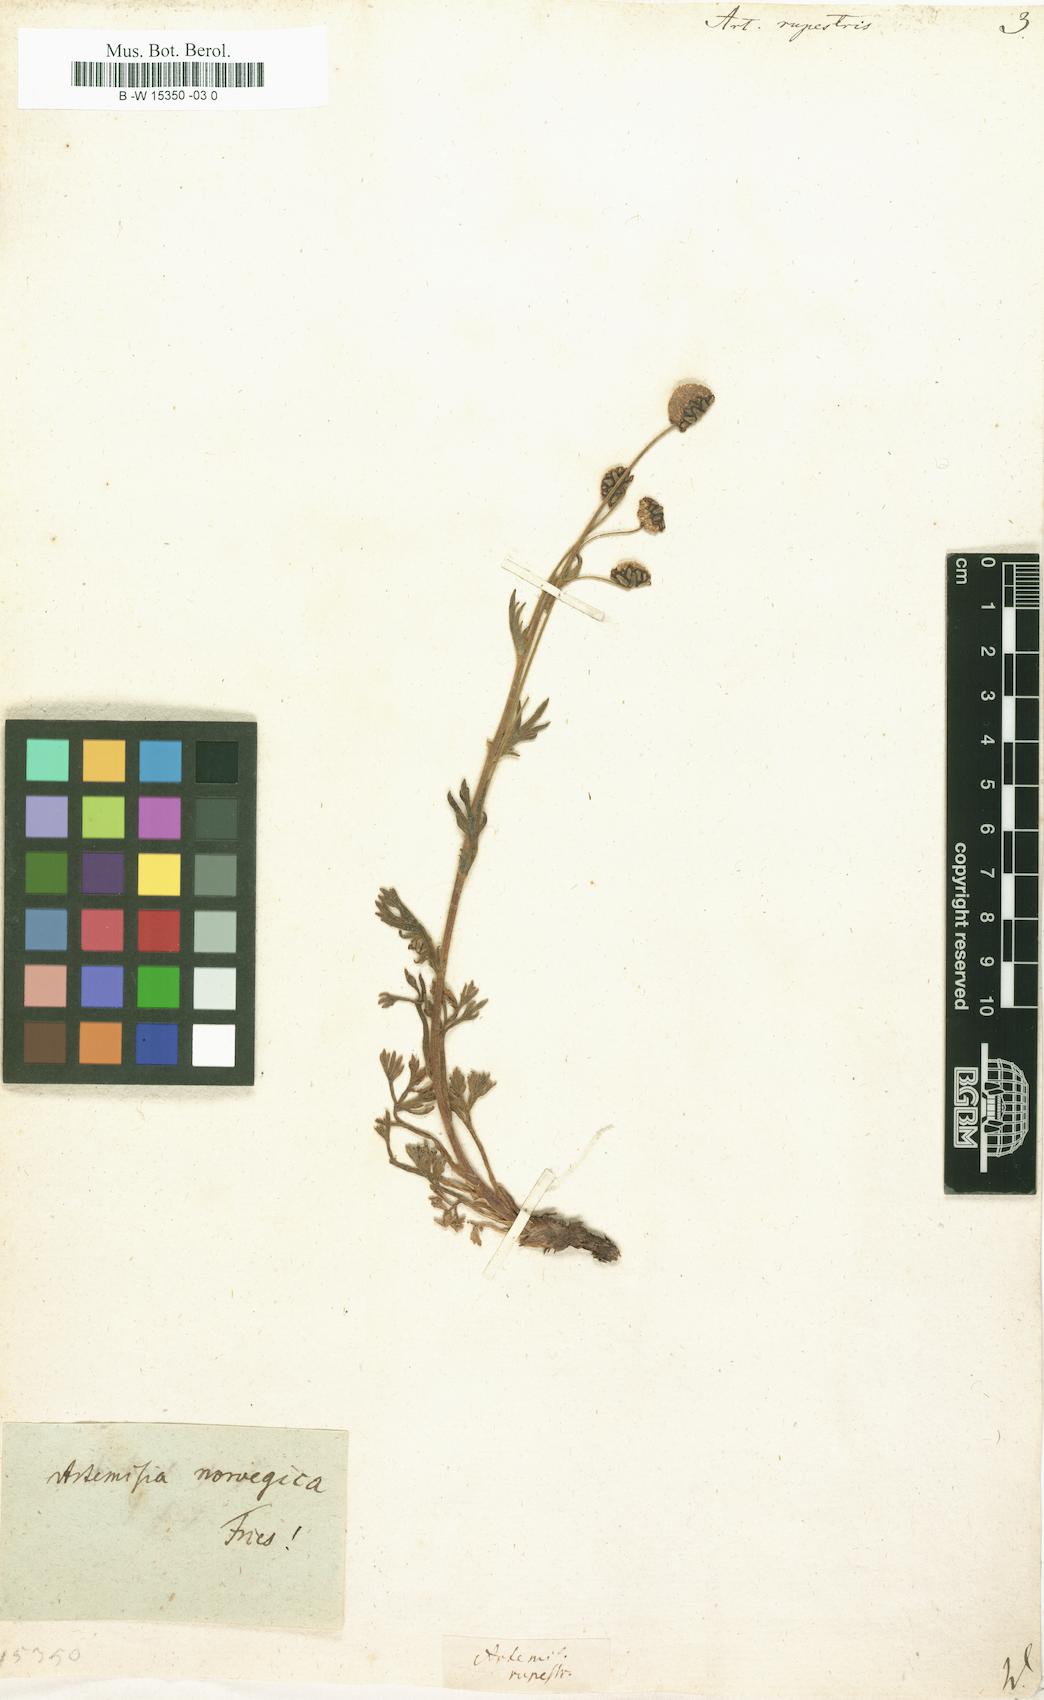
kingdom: Plantae
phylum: Tracheophyta
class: Magnoliopsida
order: Asterales
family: Asteraceae
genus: Artemisia
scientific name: Artemisia rupestris
